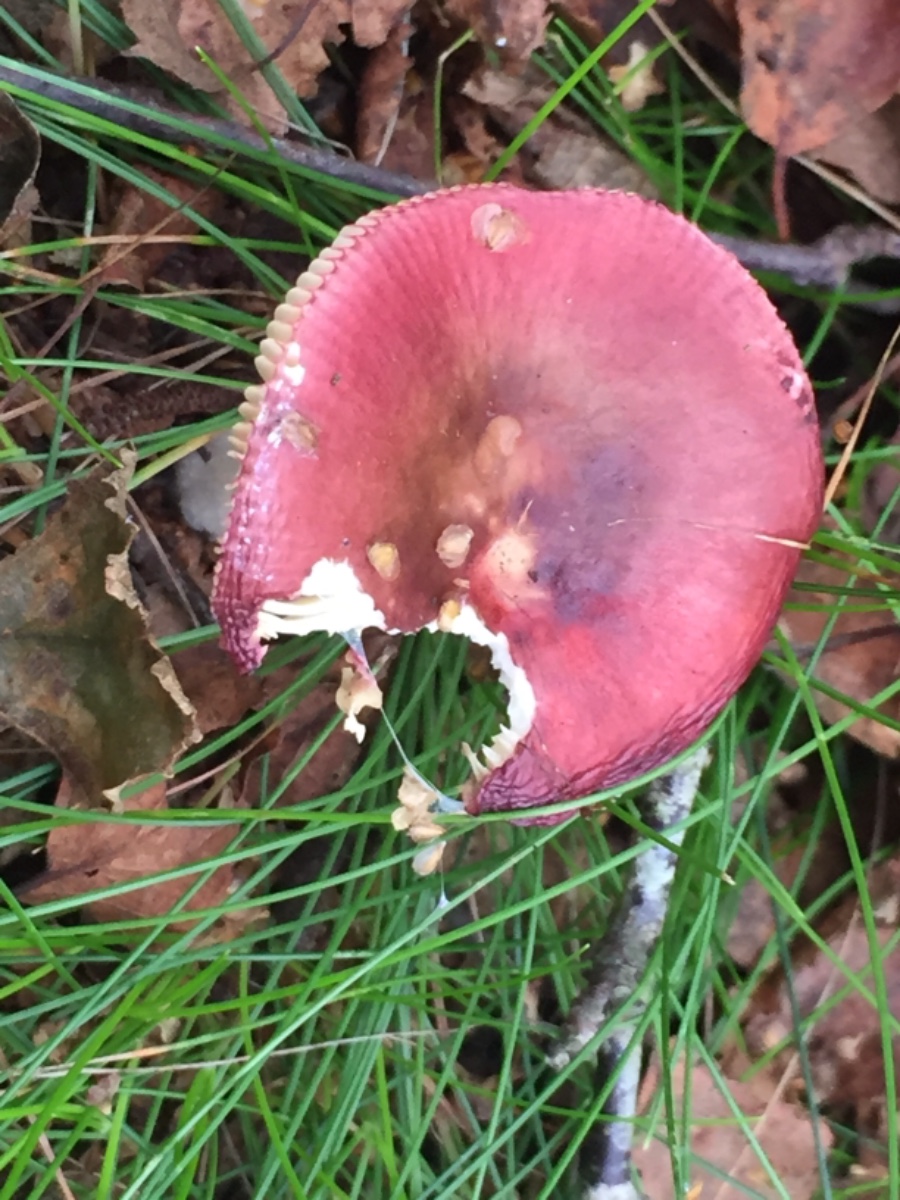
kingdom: Fungi
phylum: Basidiomycota
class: Agaricomycetes
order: Russulales
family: Russulaceae
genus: Russula
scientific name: Russula
